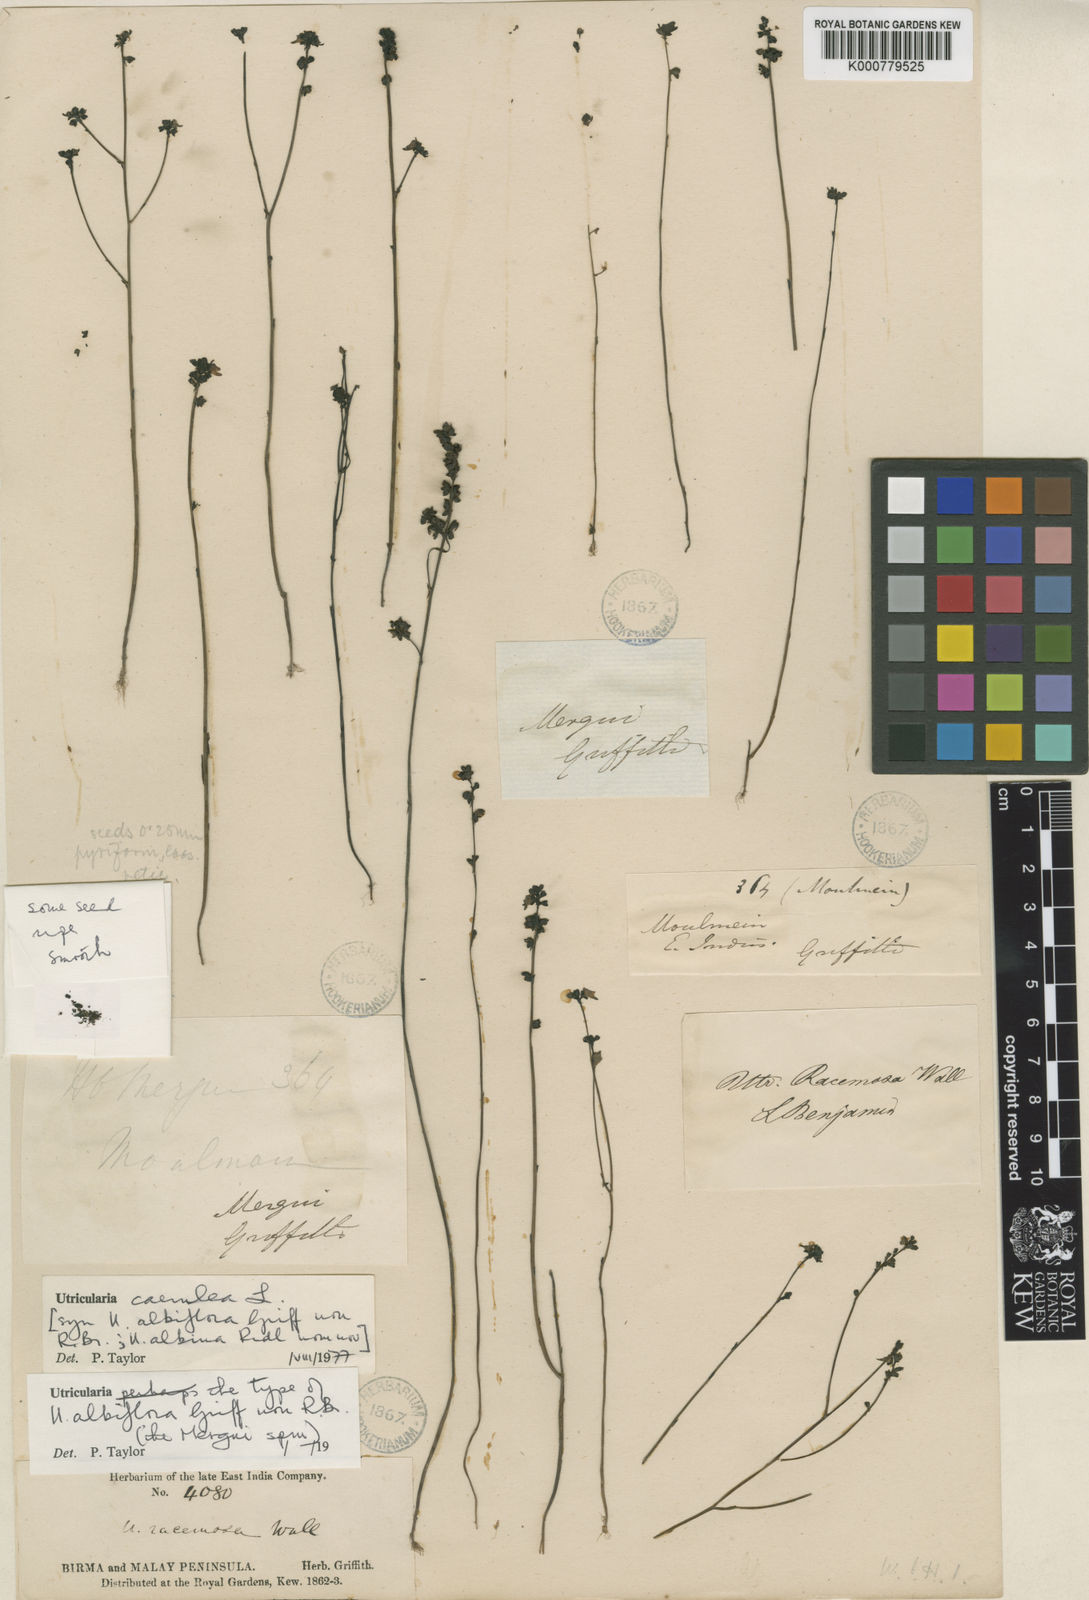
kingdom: Plantae
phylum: Tracheophyta
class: Magnoliopsida
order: Lamiales
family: Lentibulariaceae
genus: Utricularia
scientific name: Utricularia caerulea
